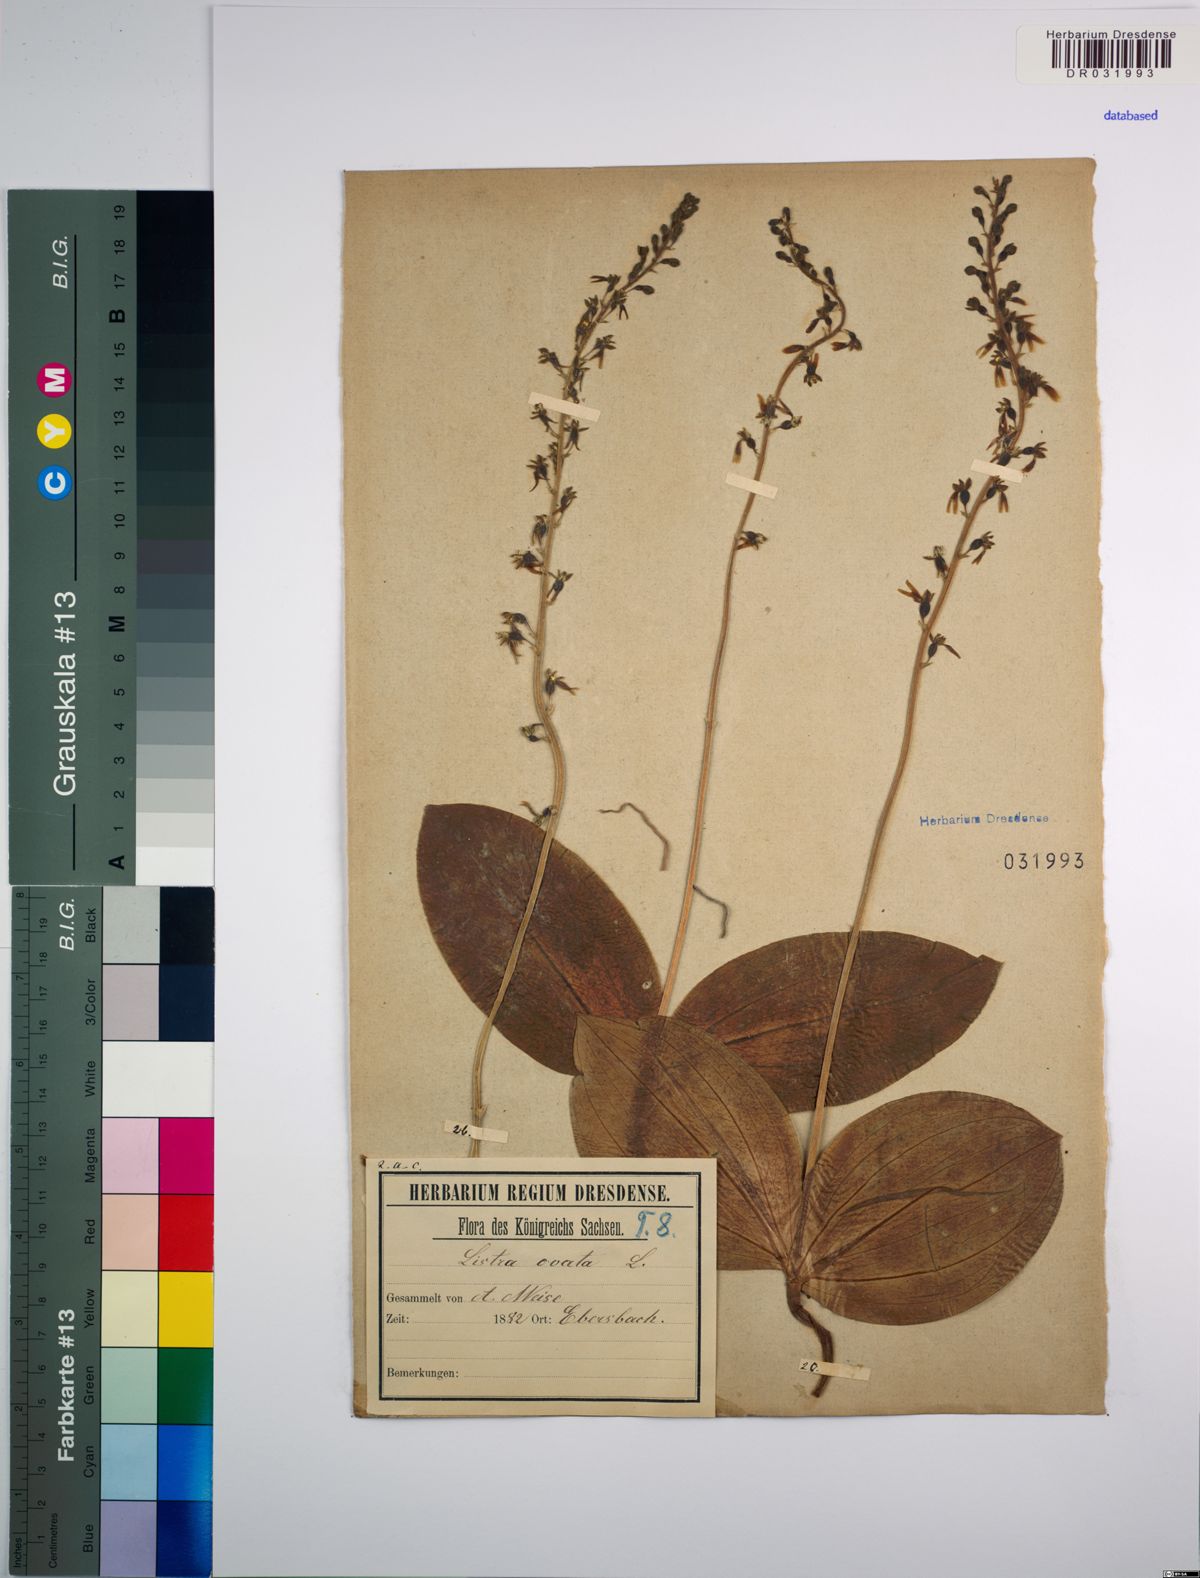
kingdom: Plantae
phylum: Tracheophyta
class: Liliopsida
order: Asparagales
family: Orchidaceae
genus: Neottia
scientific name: Neottia ovata
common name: Common twayblade
